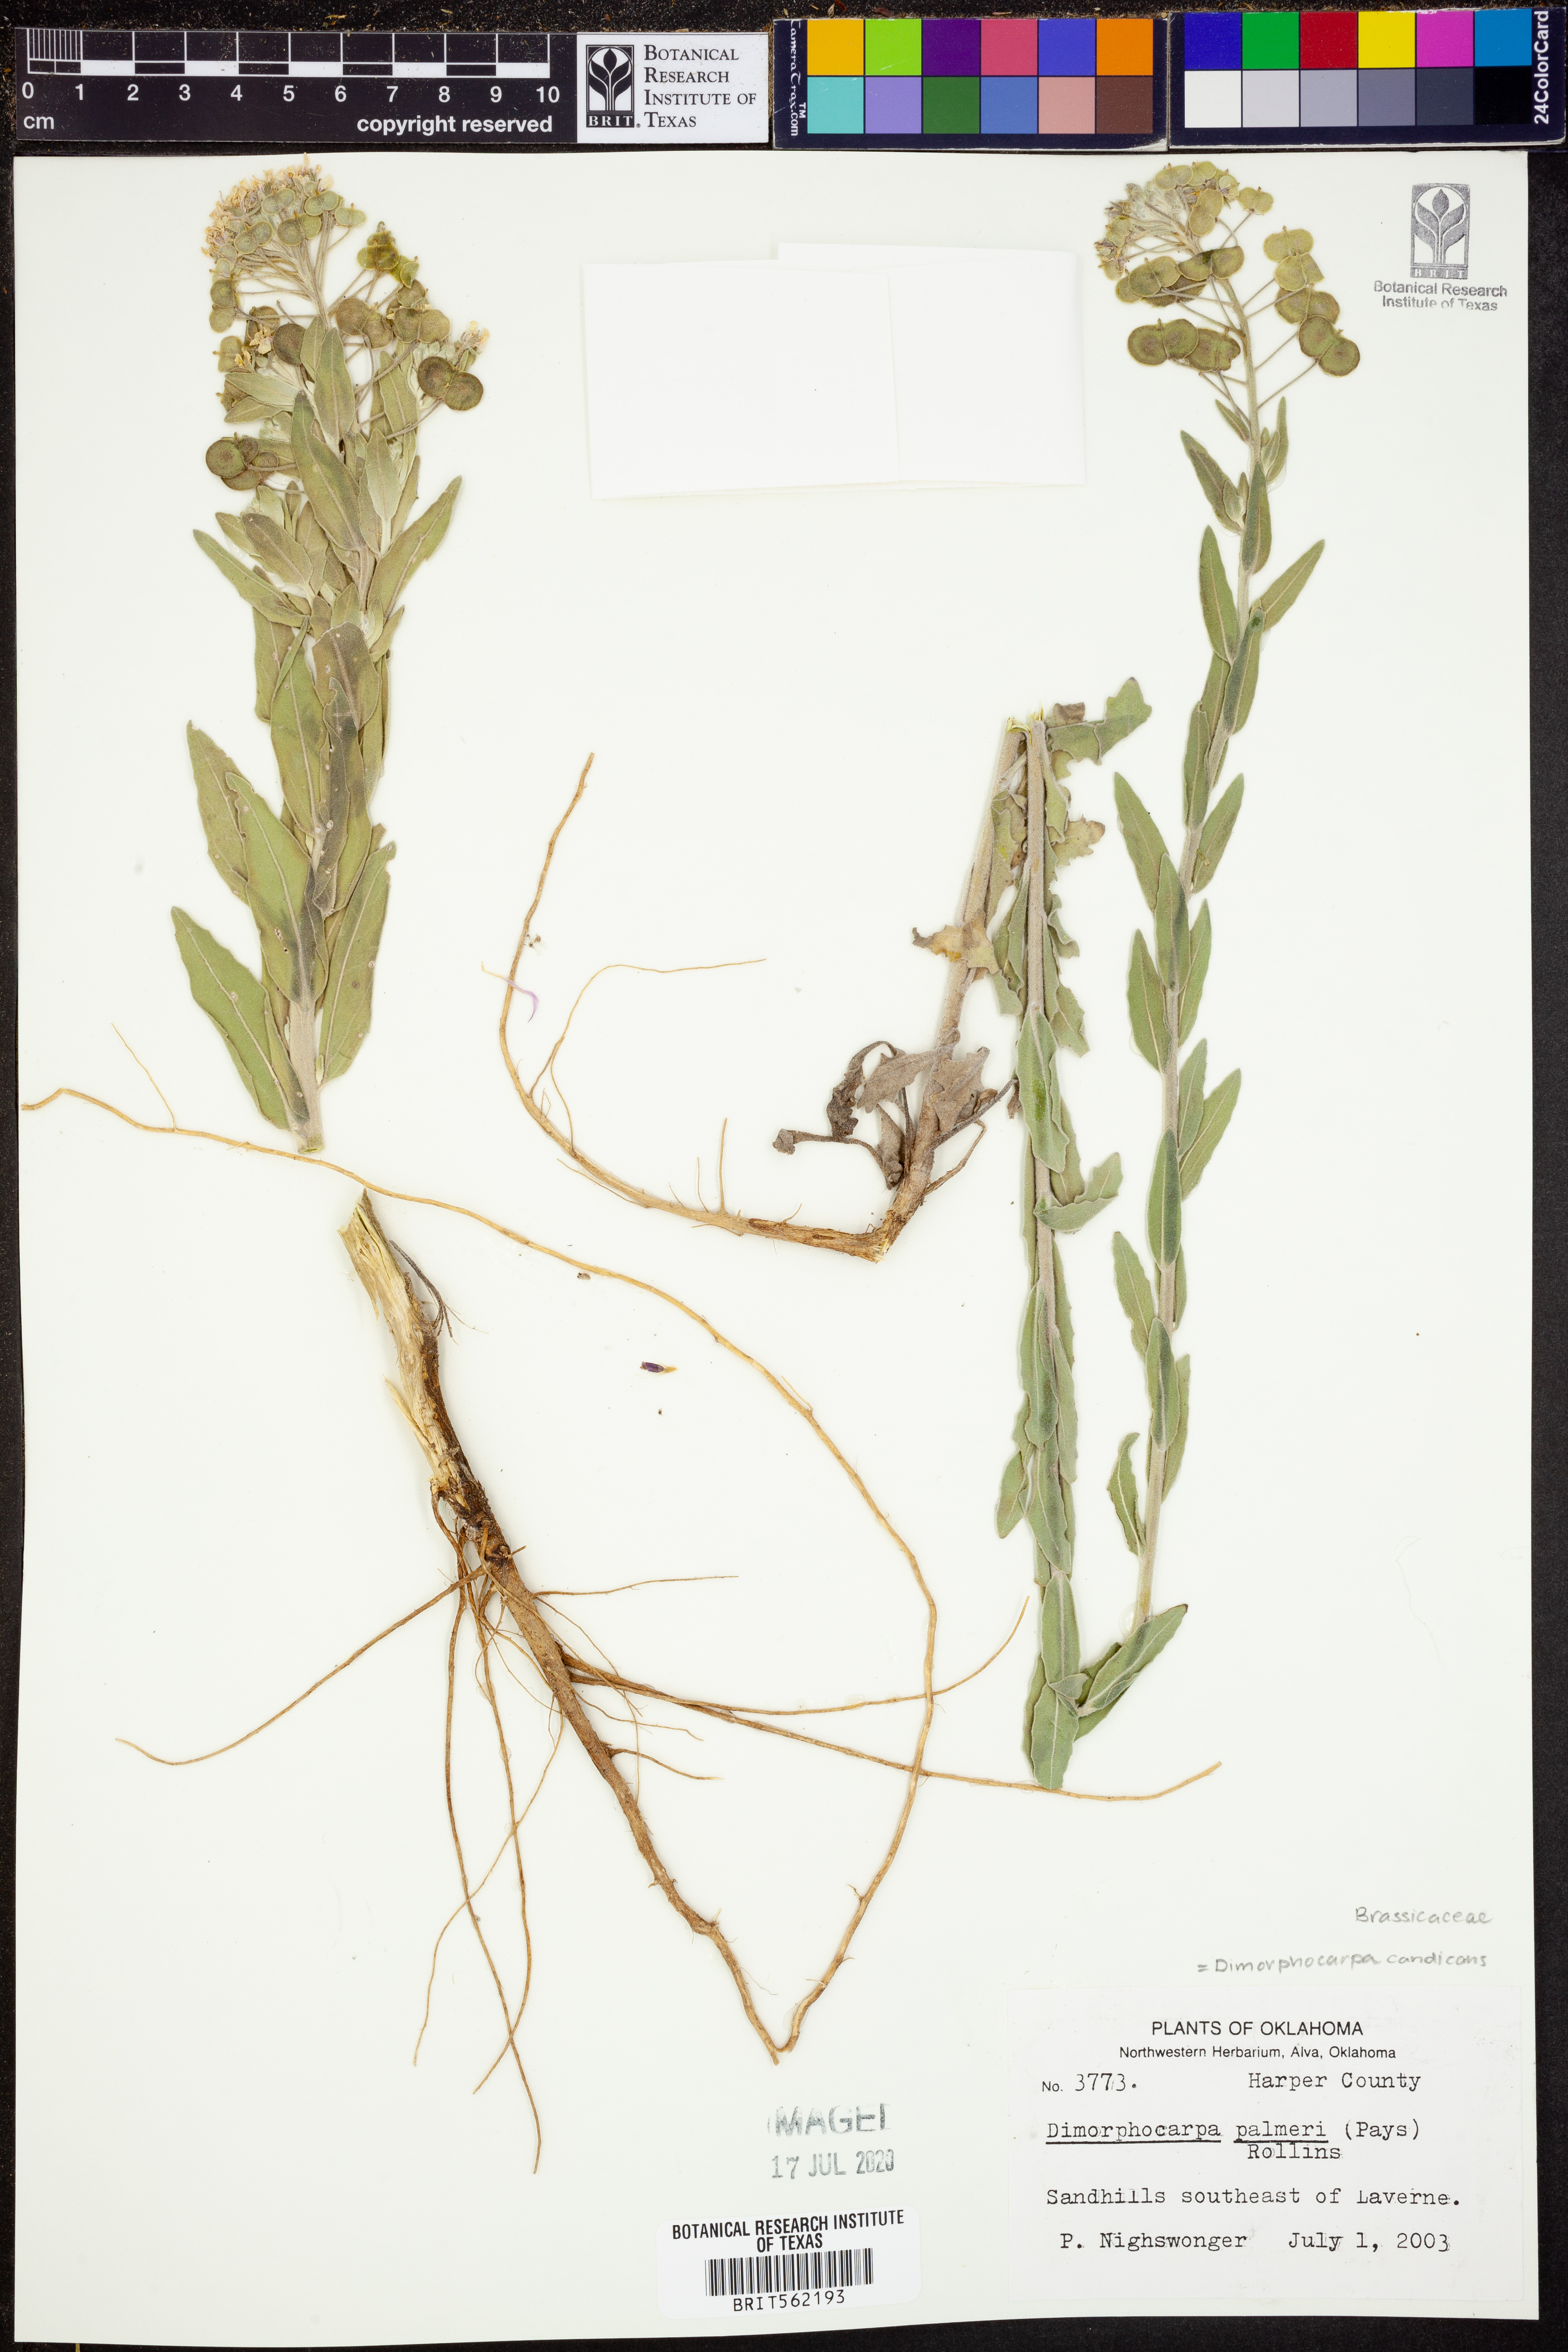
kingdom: Plantae
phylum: Tracheophyta
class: Magnoliopsida
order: Brassicales
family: Brassicaceae
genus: Dimorphocarpa
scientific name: Dimorphocarpa candicans
